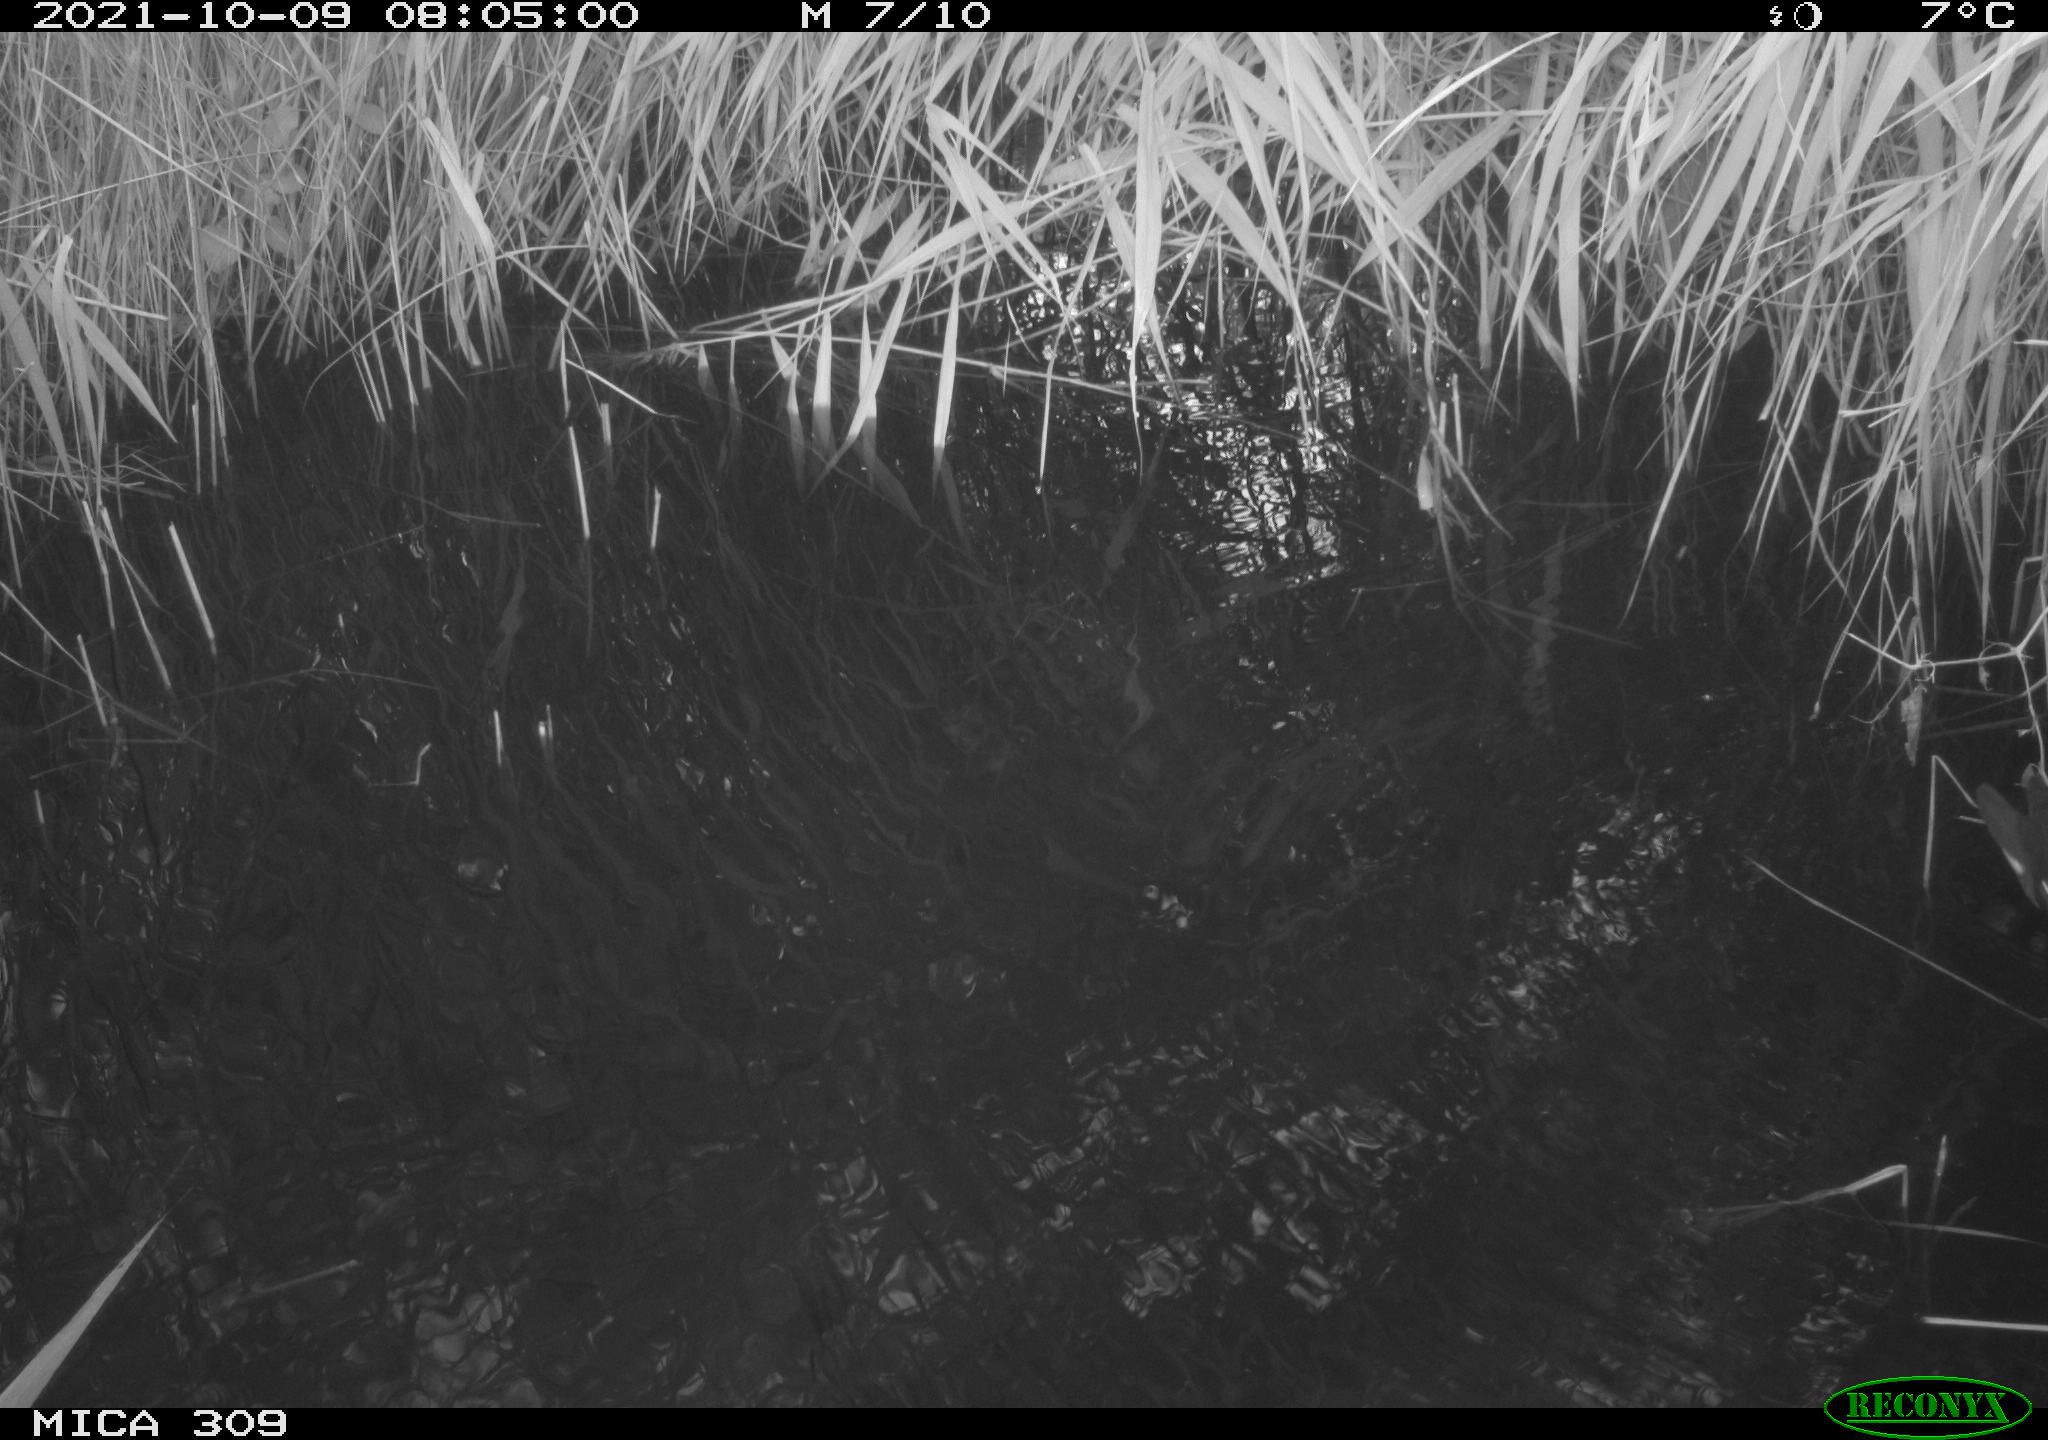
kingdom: Animalia
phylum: Chordata
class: Aves
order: Gruiformes
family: Rallidae
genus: Gallinula
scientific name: Gallinula chloropus
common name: Common moorhen
